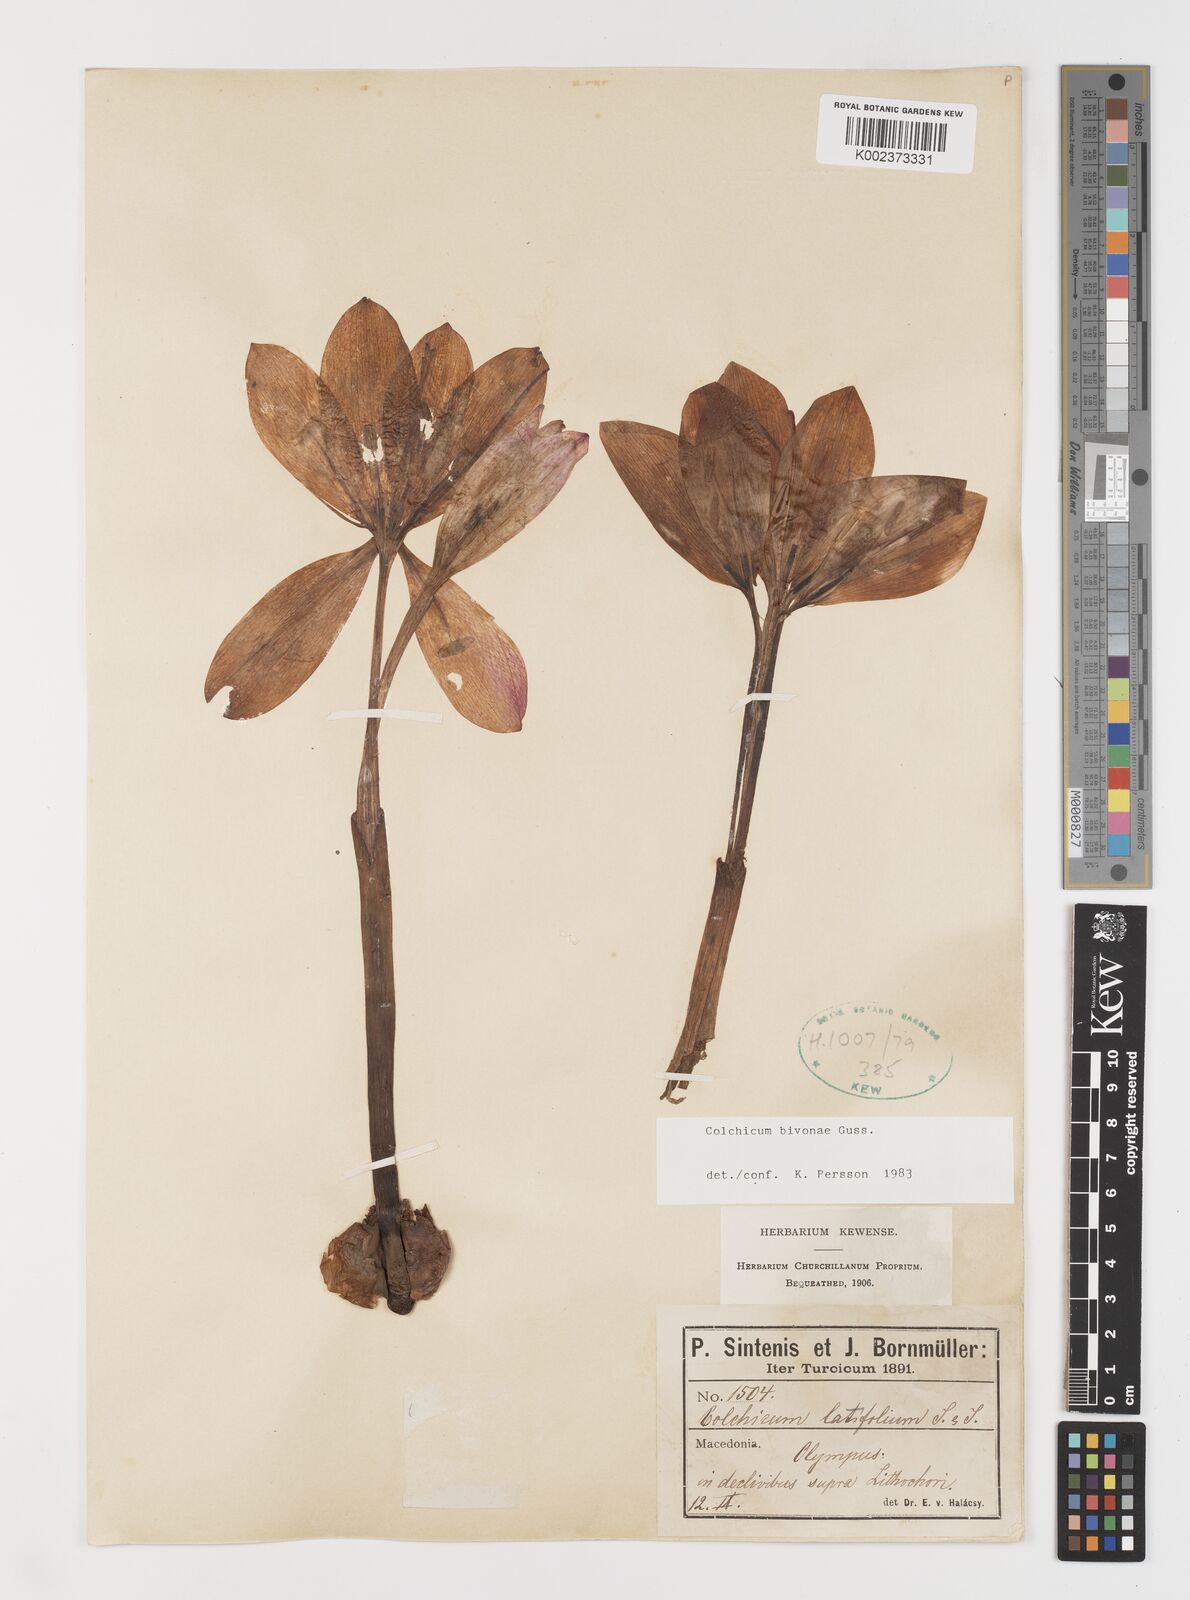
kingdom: Plantae
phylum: Tracheophyta
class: Liliopsida
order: Liliales
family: Colchicaceae
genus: Colchicum
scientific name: Colchicum bivonae
